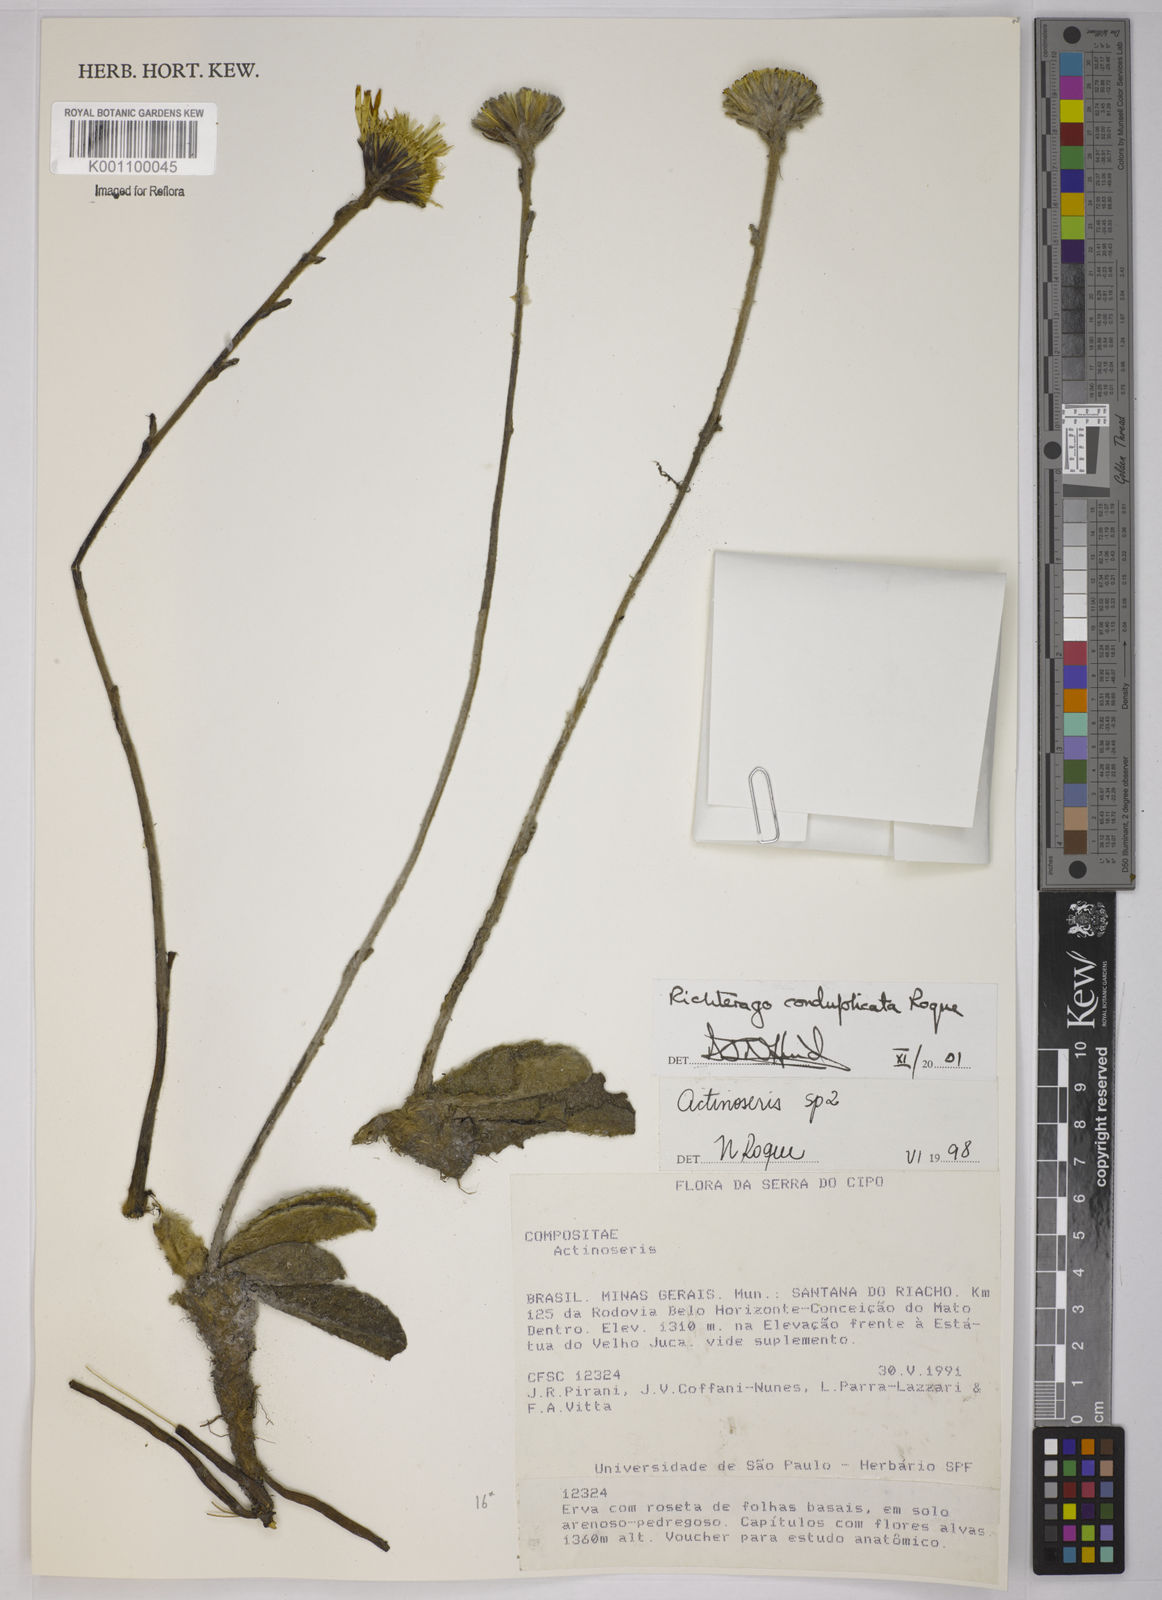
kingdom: Plantae
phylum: Tracheophyta
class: Magnoliopsida
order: Asterales
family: Asteraceae
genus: Richterago
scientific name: Richterago conduplicata
